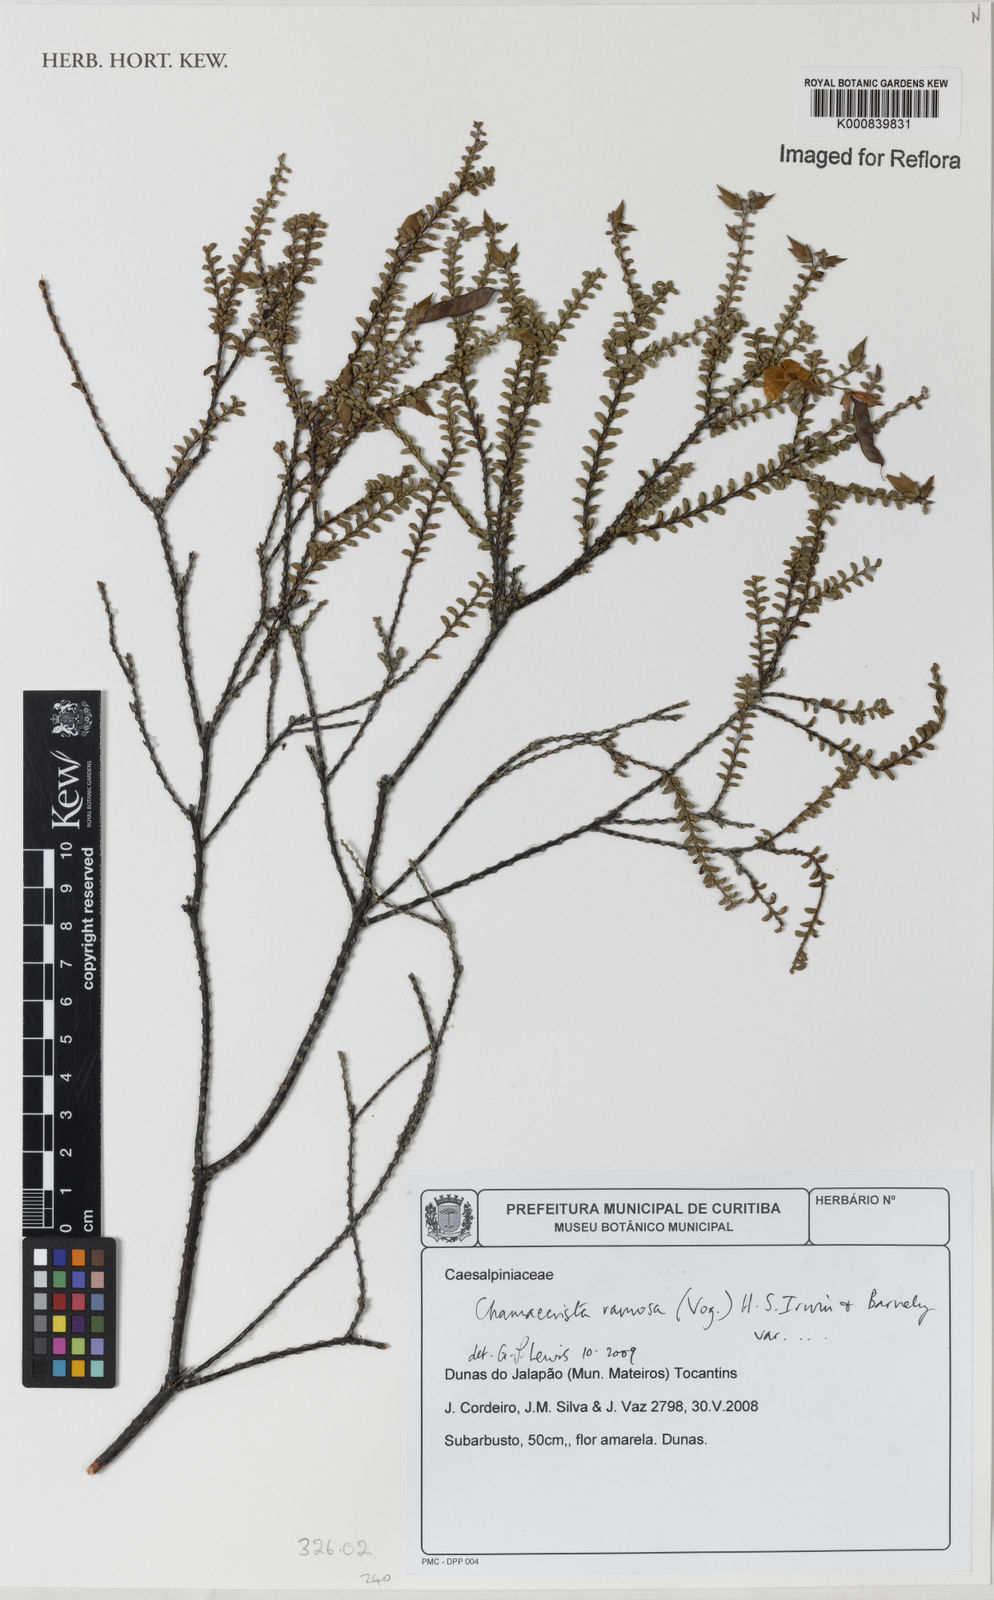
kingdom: Plantae
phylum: Tracheophyta
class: Magnoliopsida
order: Fabales
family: Fabaceae
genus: Chamaecrista
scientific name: Chamaecrista ramosa
